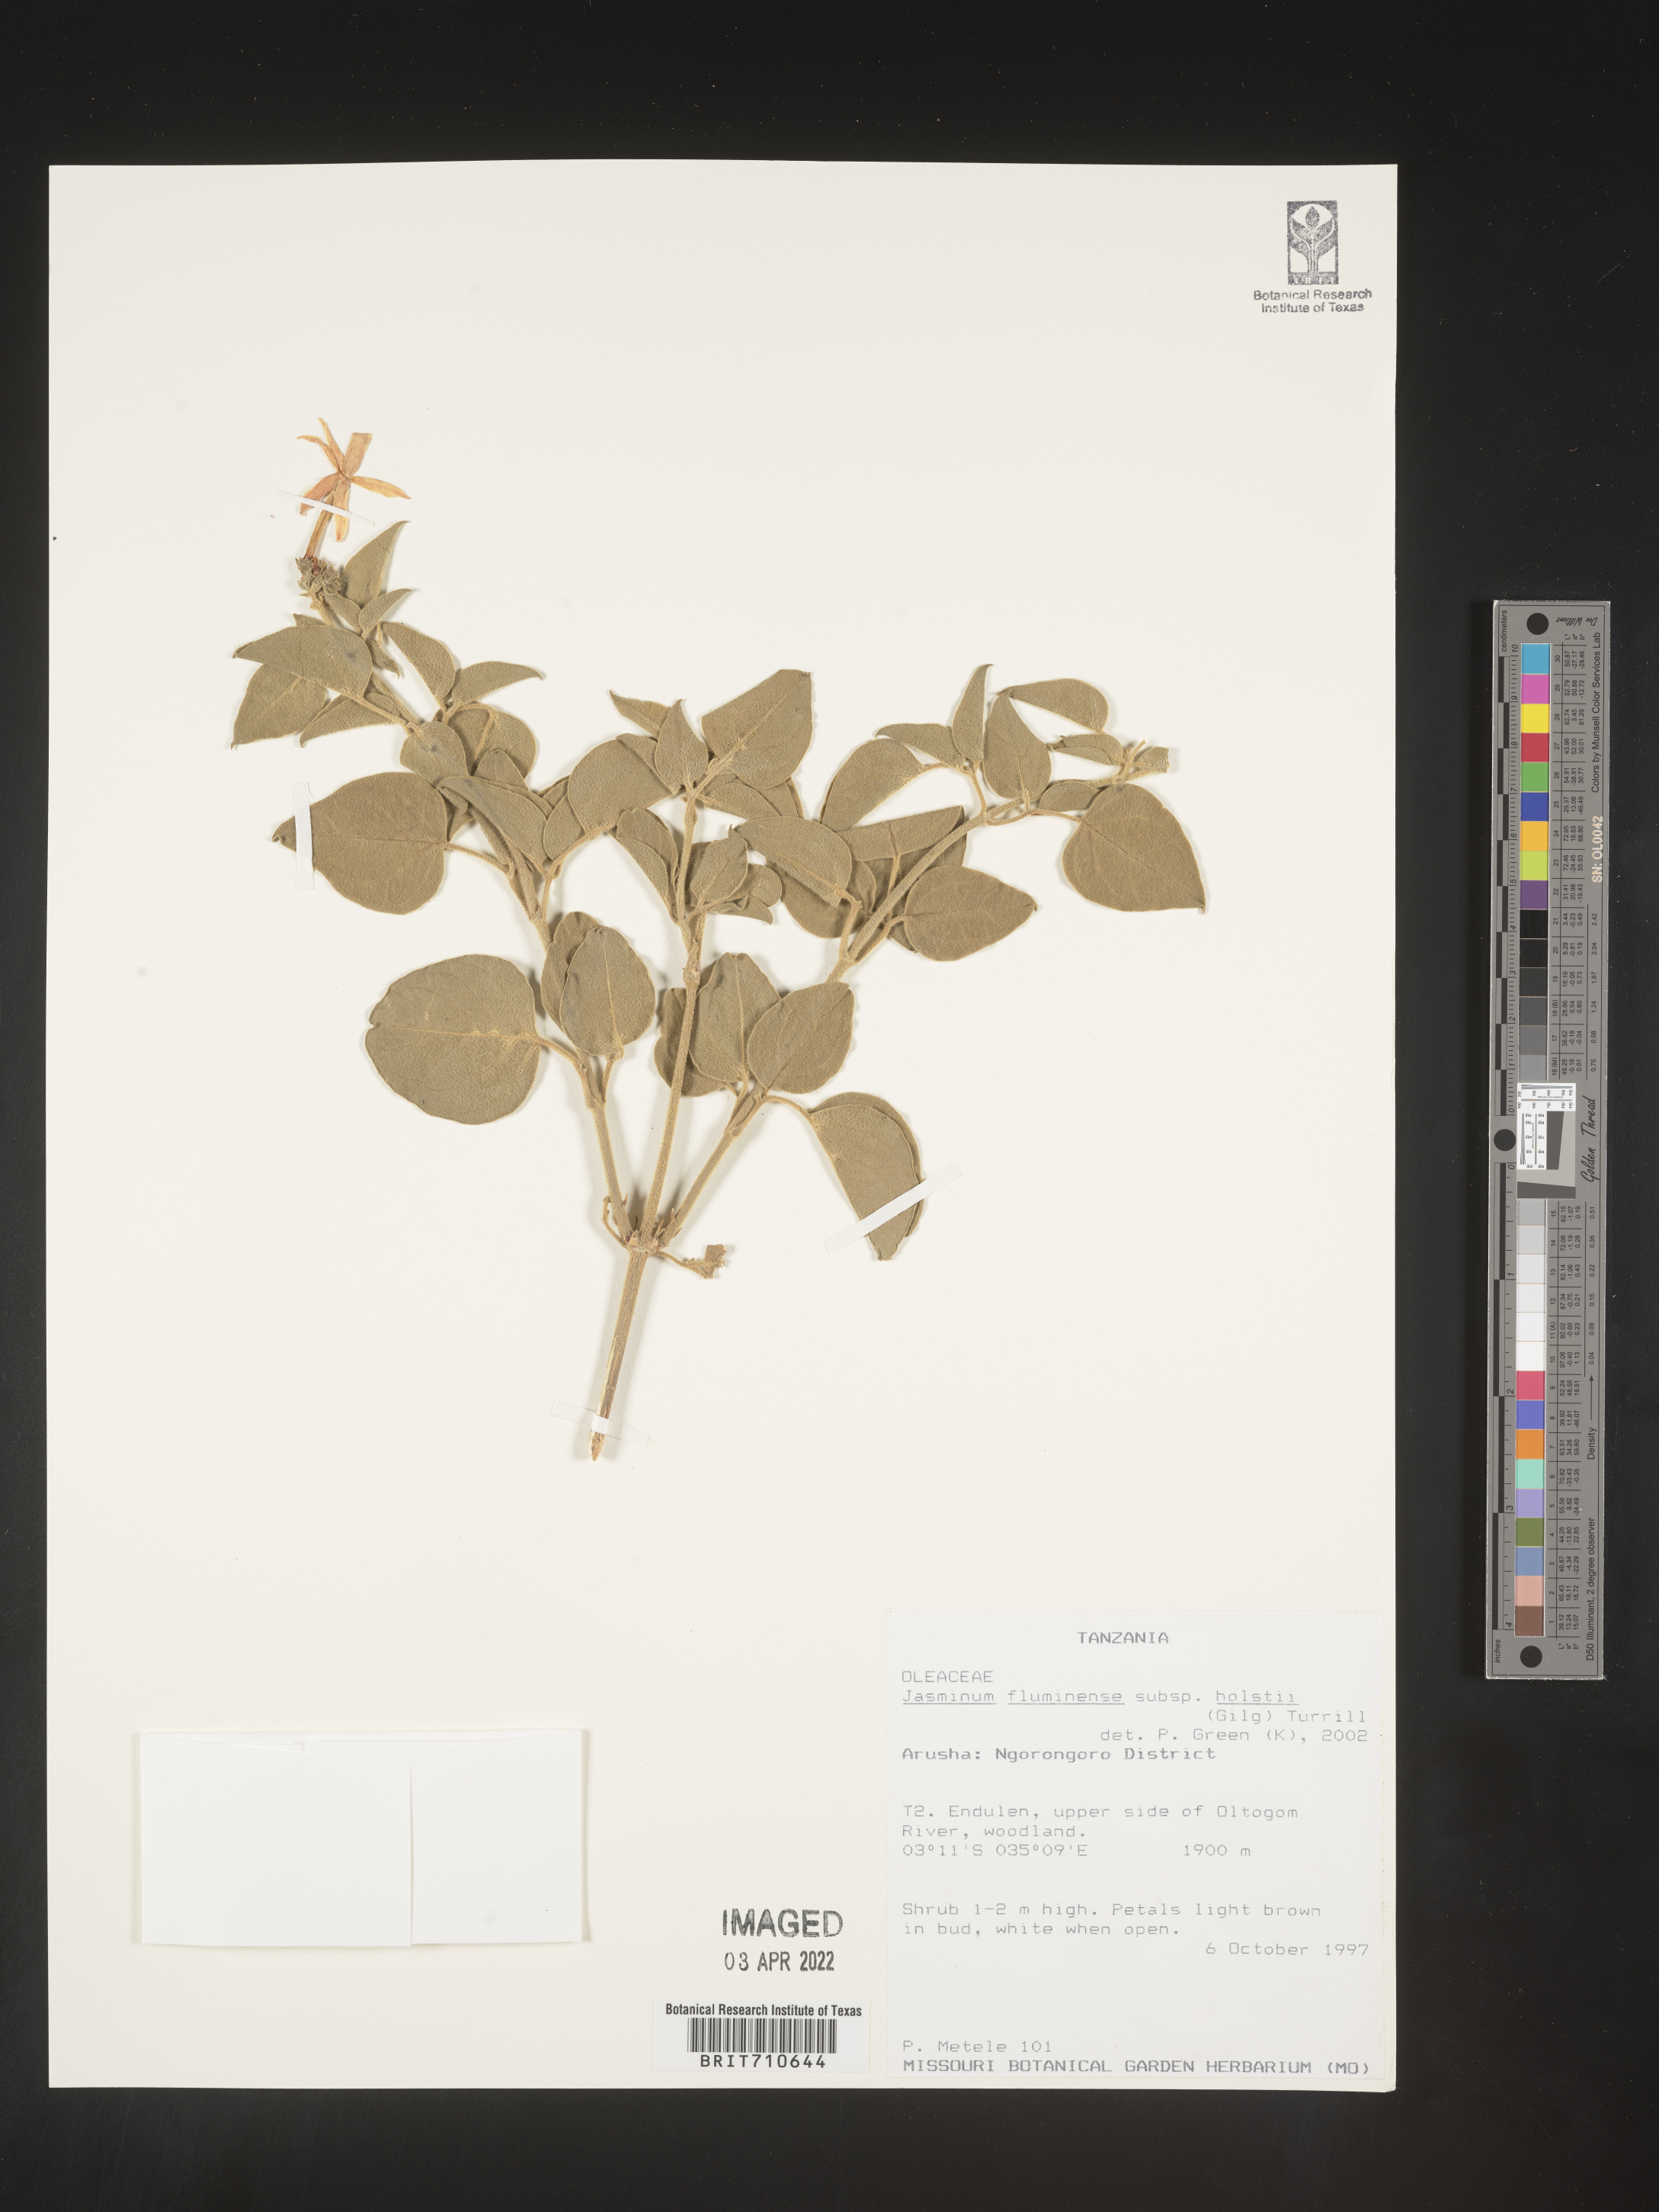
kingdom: Plantae
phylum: Tracheophyta
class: Magnoliopsida
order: Lamiales
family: Oleaceae
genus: Jasminum
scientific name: Jasminum
